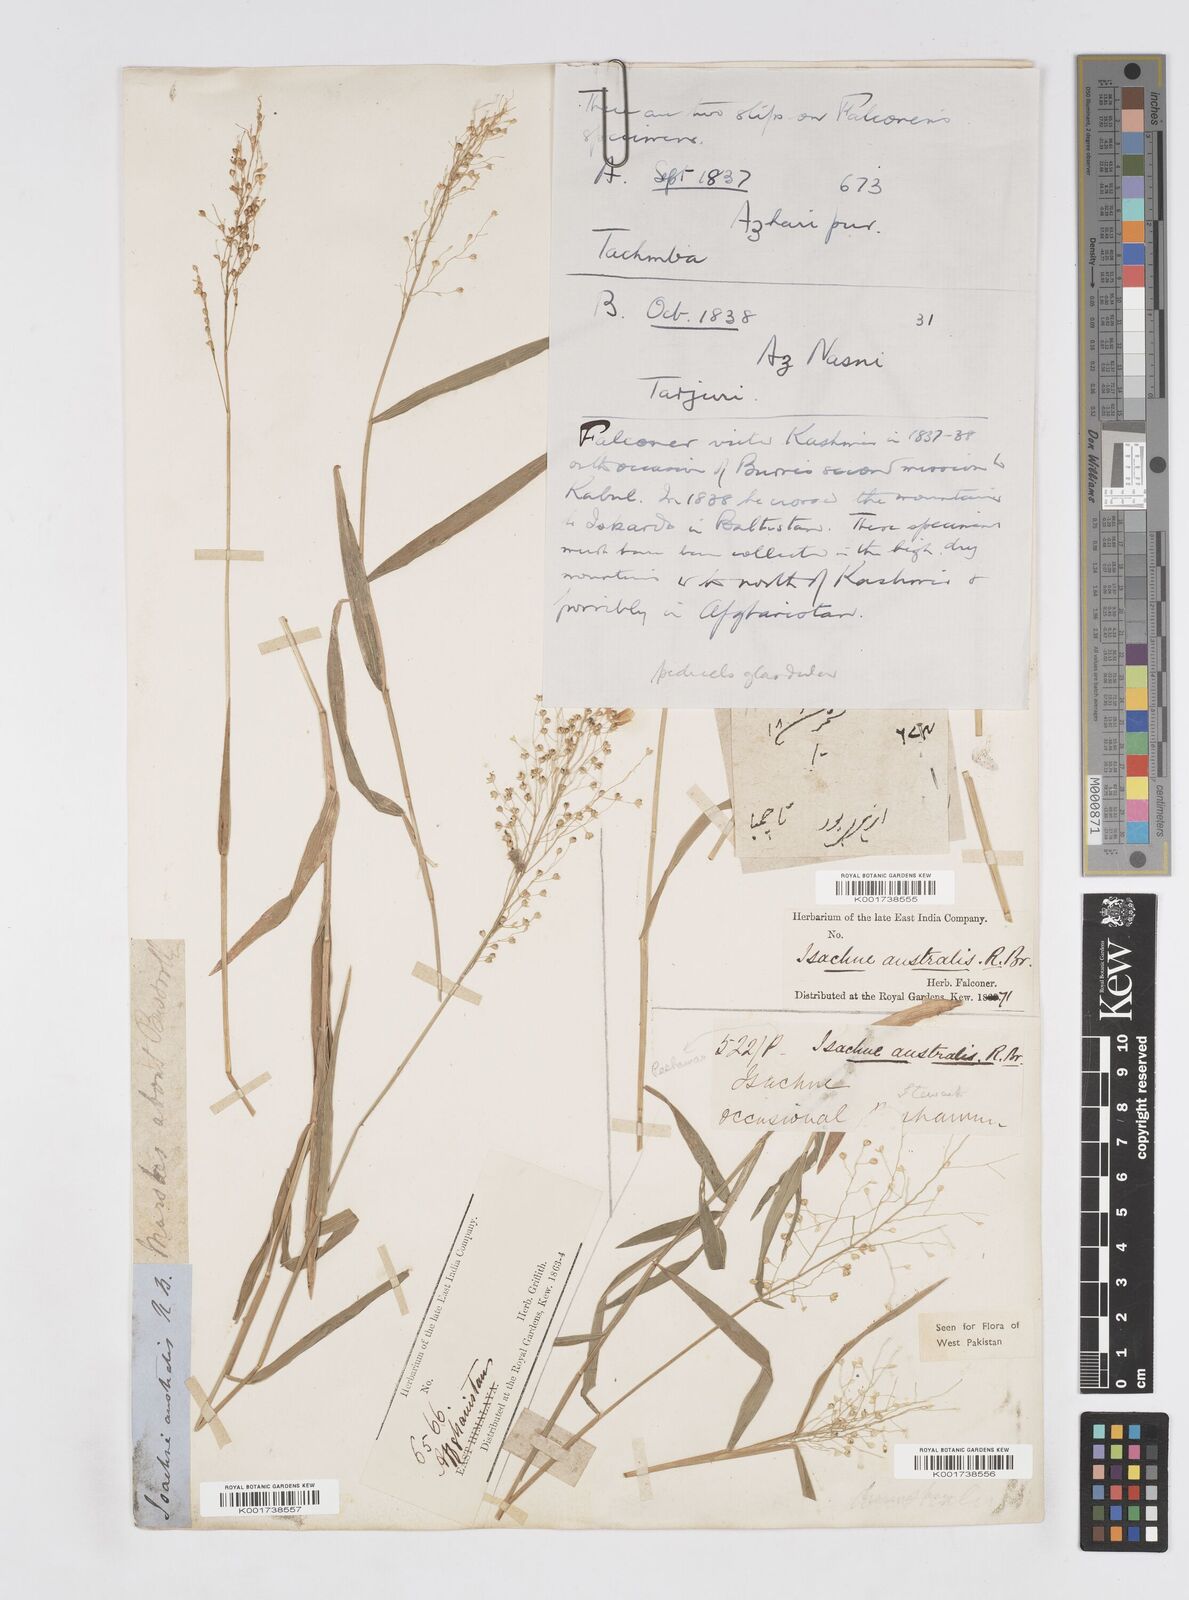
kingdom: Plantae
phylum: Tracheophyta
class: Liliopsida
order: Poales
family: Poaceae
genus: Isachne
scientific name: Isachne himalaica
